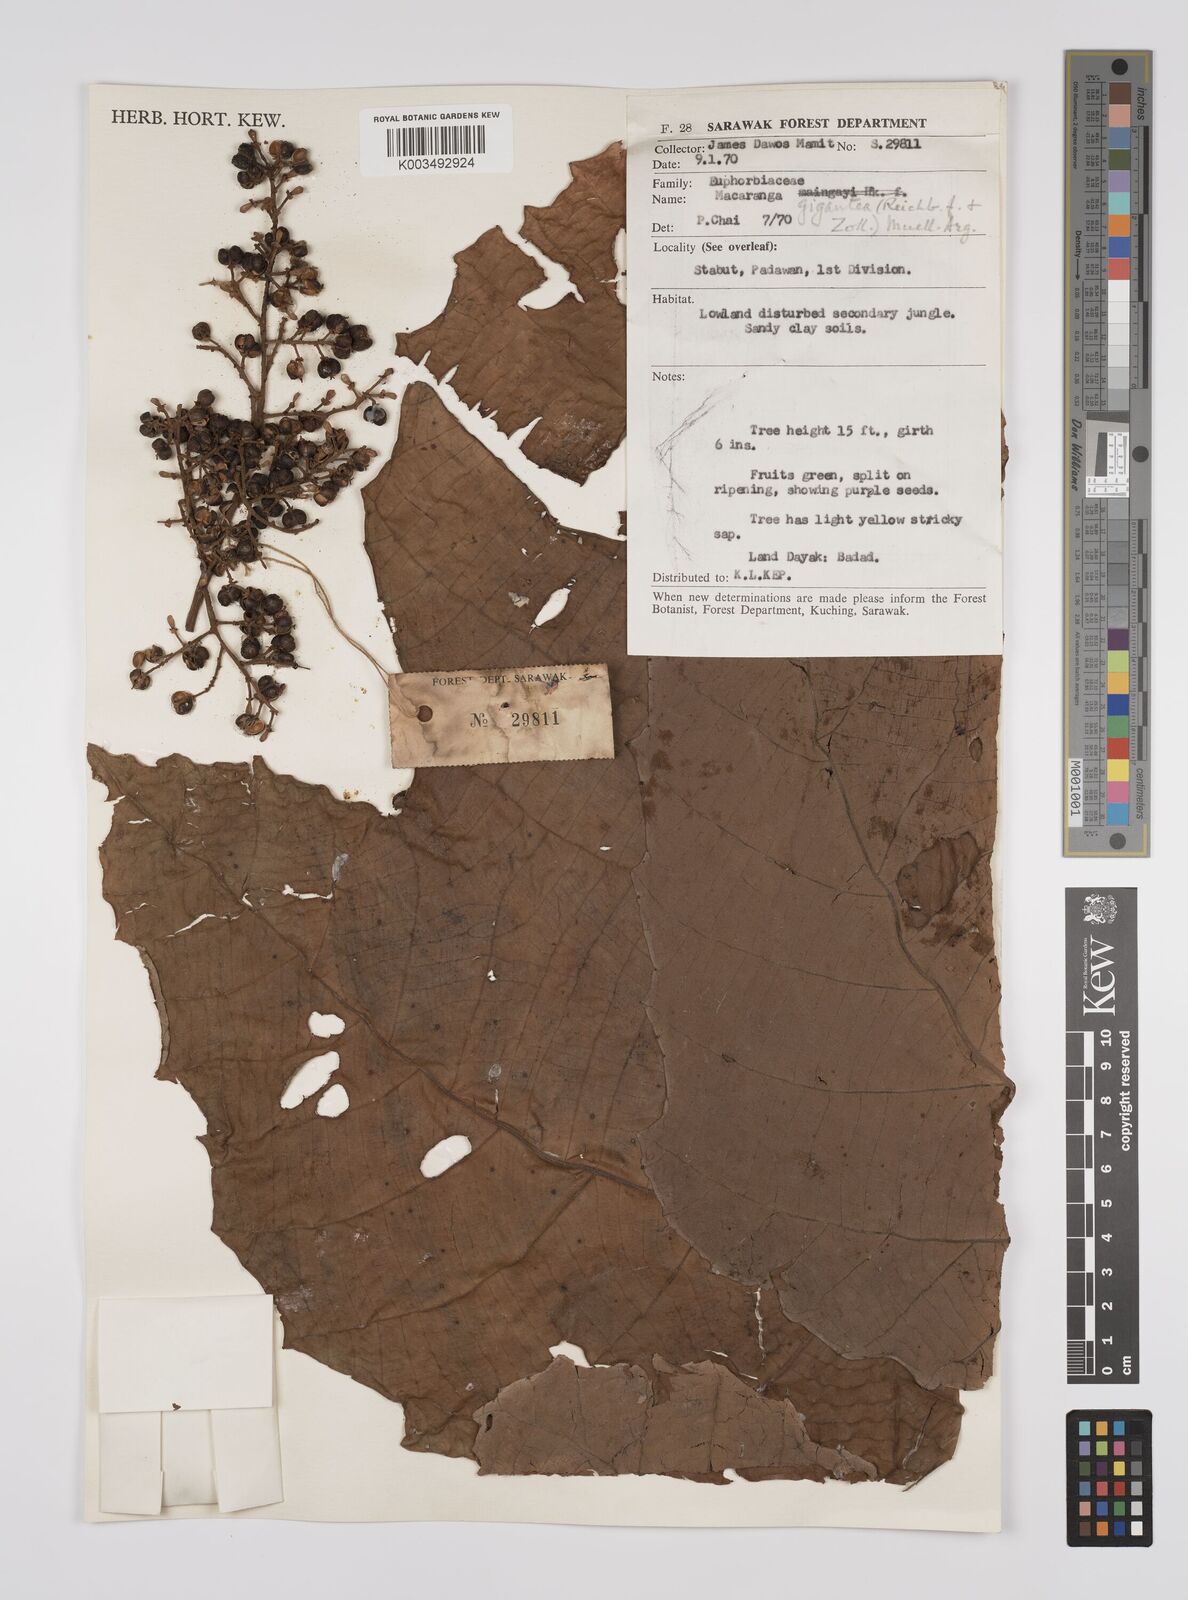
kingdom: Plantae
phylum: Tracheophyta
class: Magnoliopsida
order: Malpighiales
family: Euphorbiaceae
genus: Macaranga
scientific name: Macaranga gigantea
